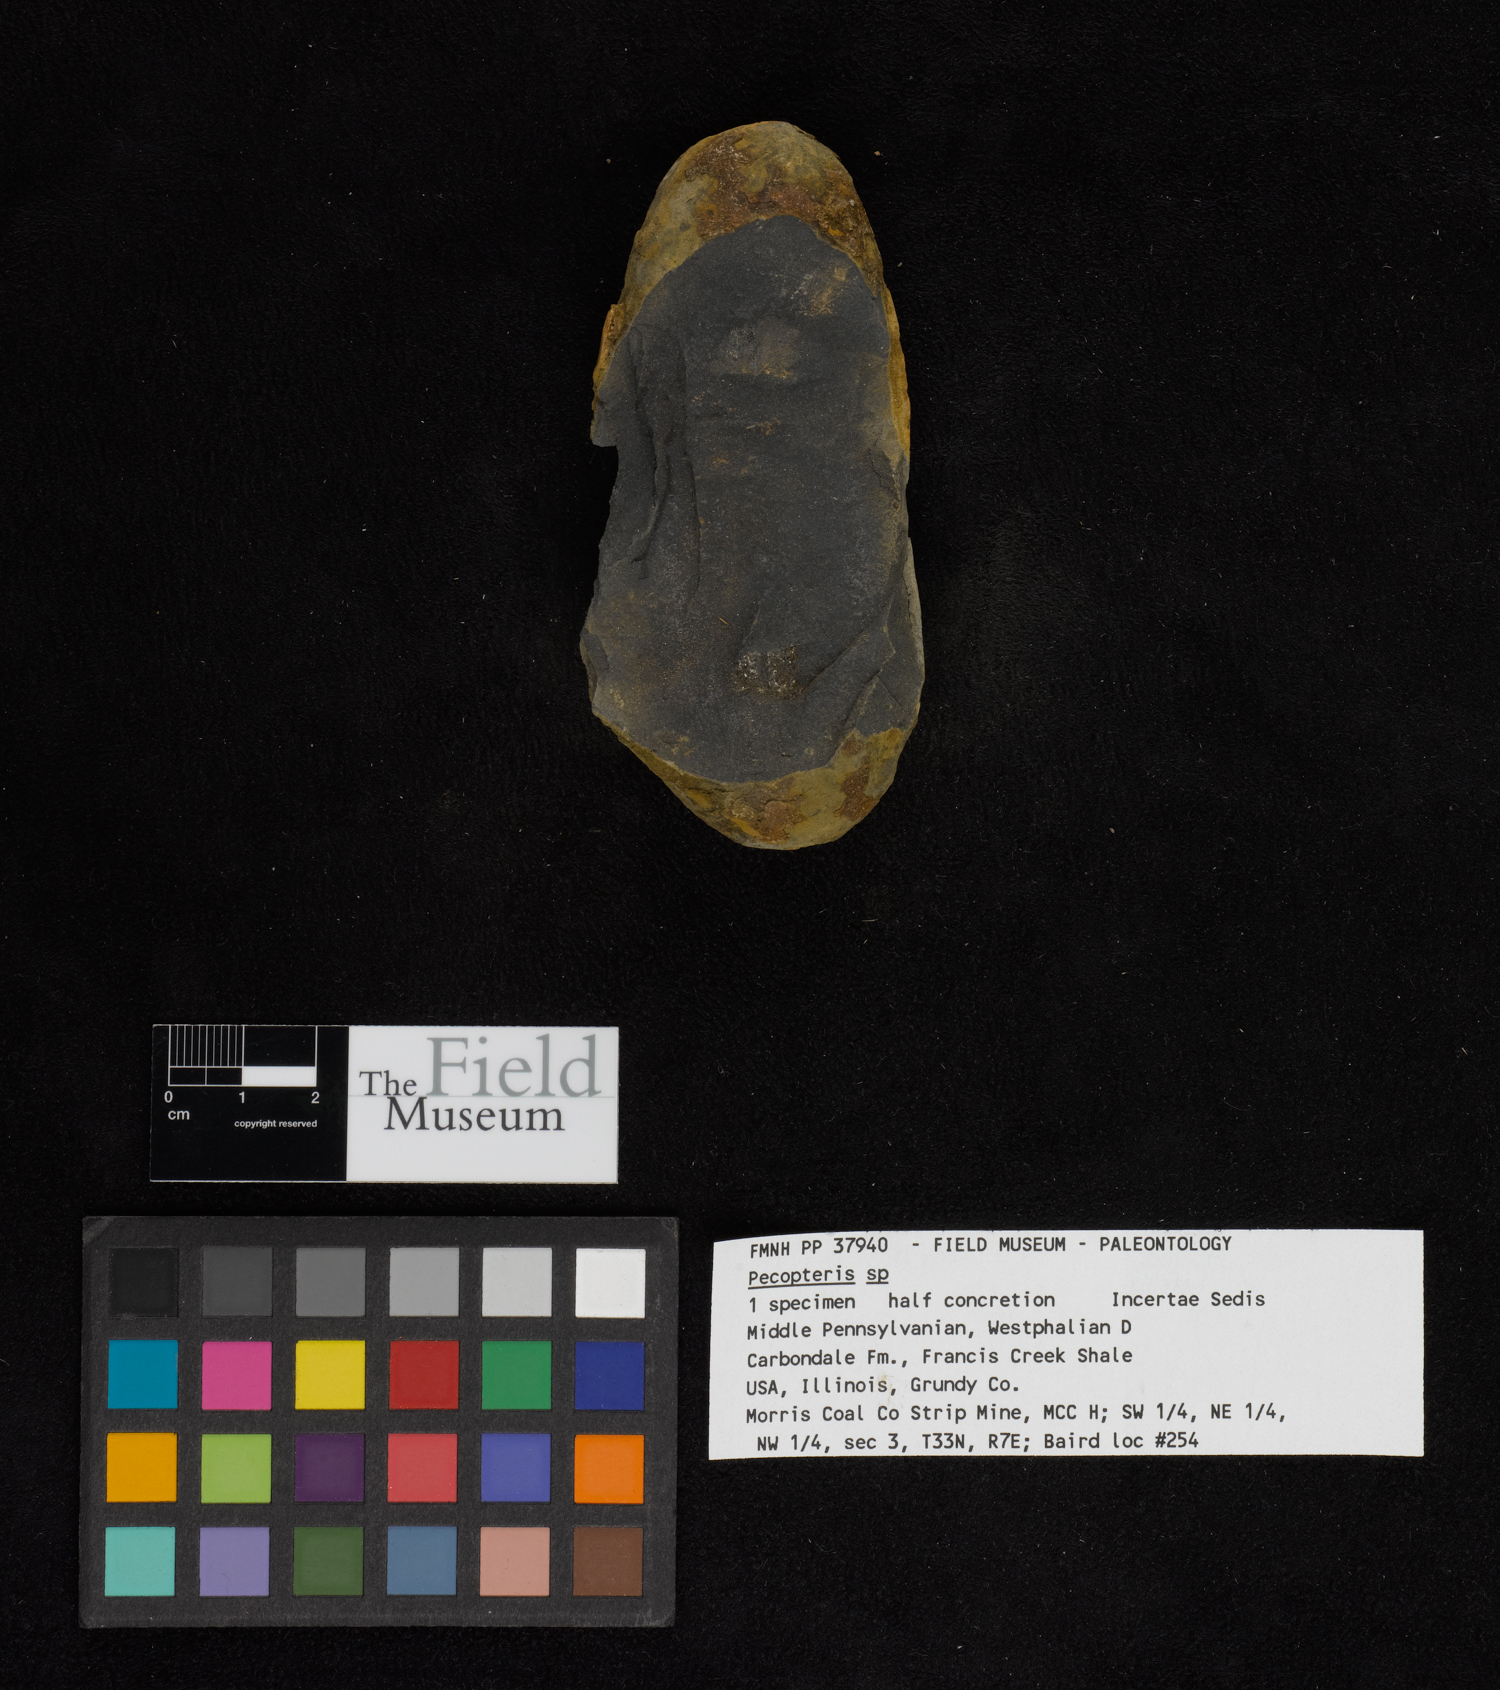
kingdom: Plantae
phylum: Tracheophyta
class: Polypodiopsida
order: Marattiales
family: Asterothecaceae
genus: Pecopteris
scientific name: Pecopteris
